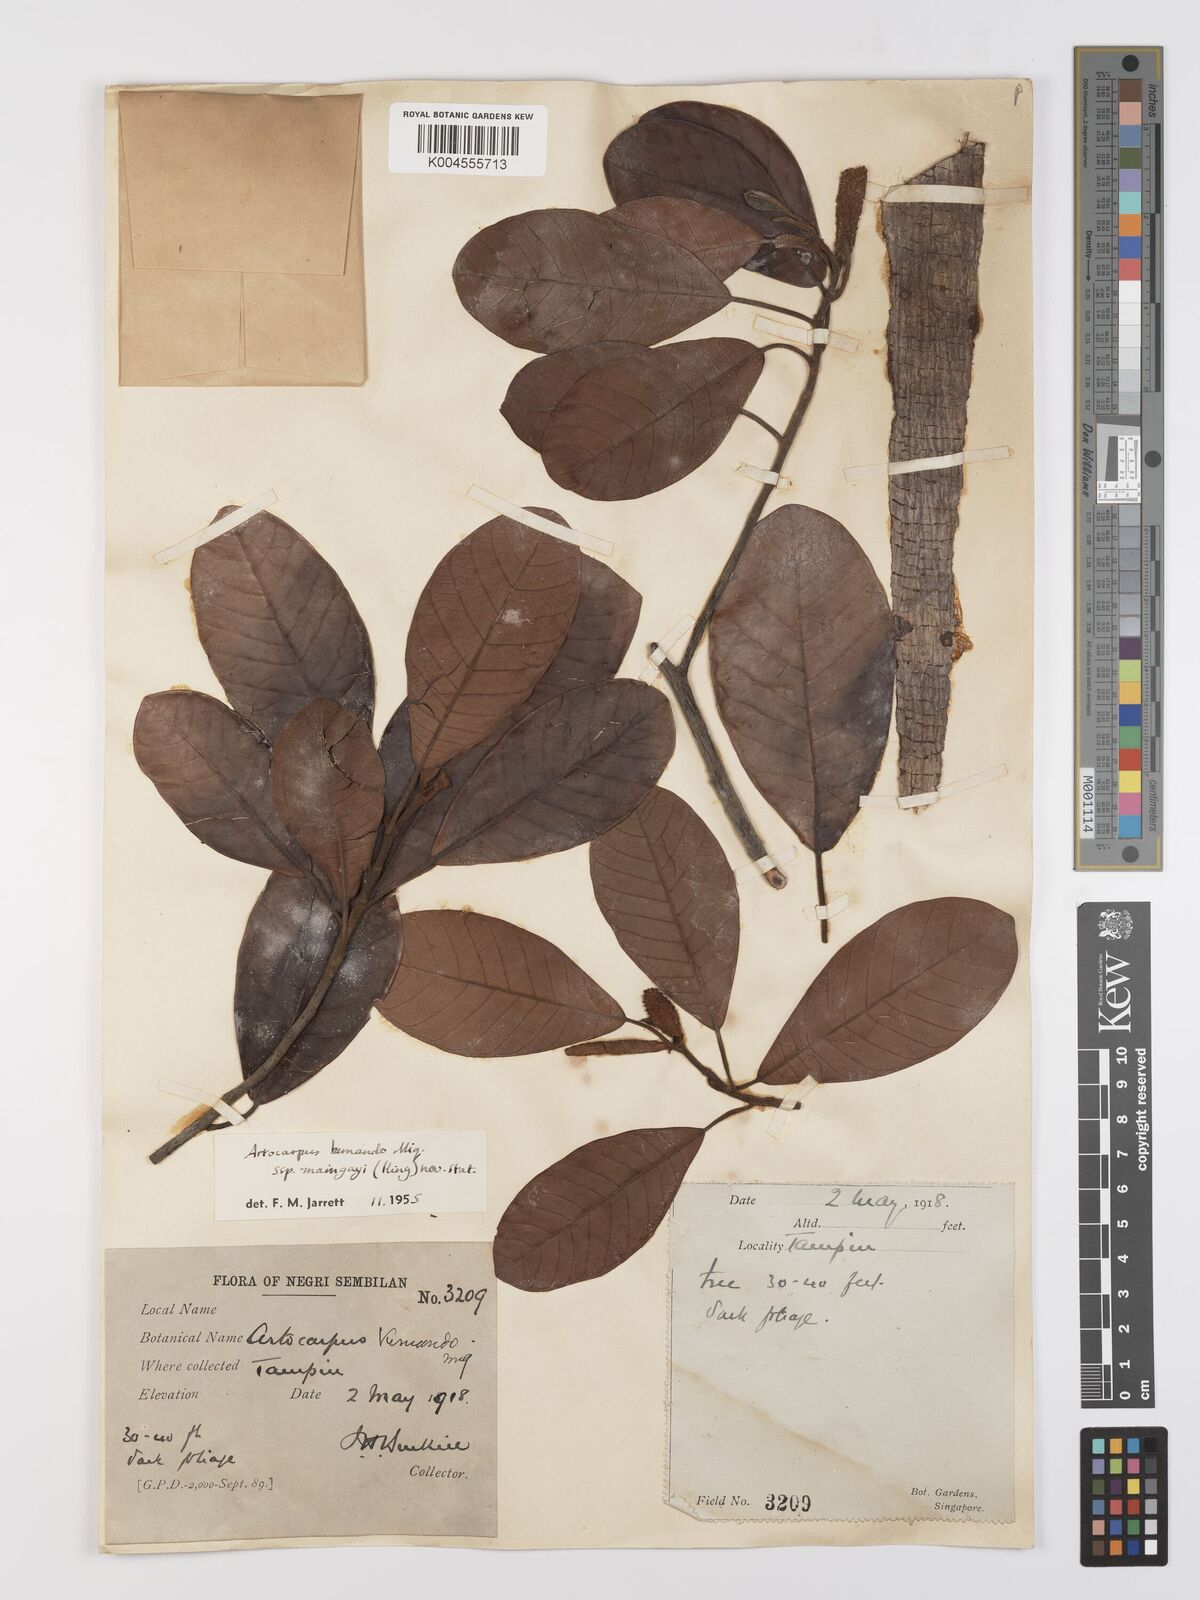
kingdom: Plantae
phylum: Tracheophyta
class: Magnoliopsida
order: Rosales
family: Moraceae
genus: Artocarpus
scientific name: Artocarpus kemando
